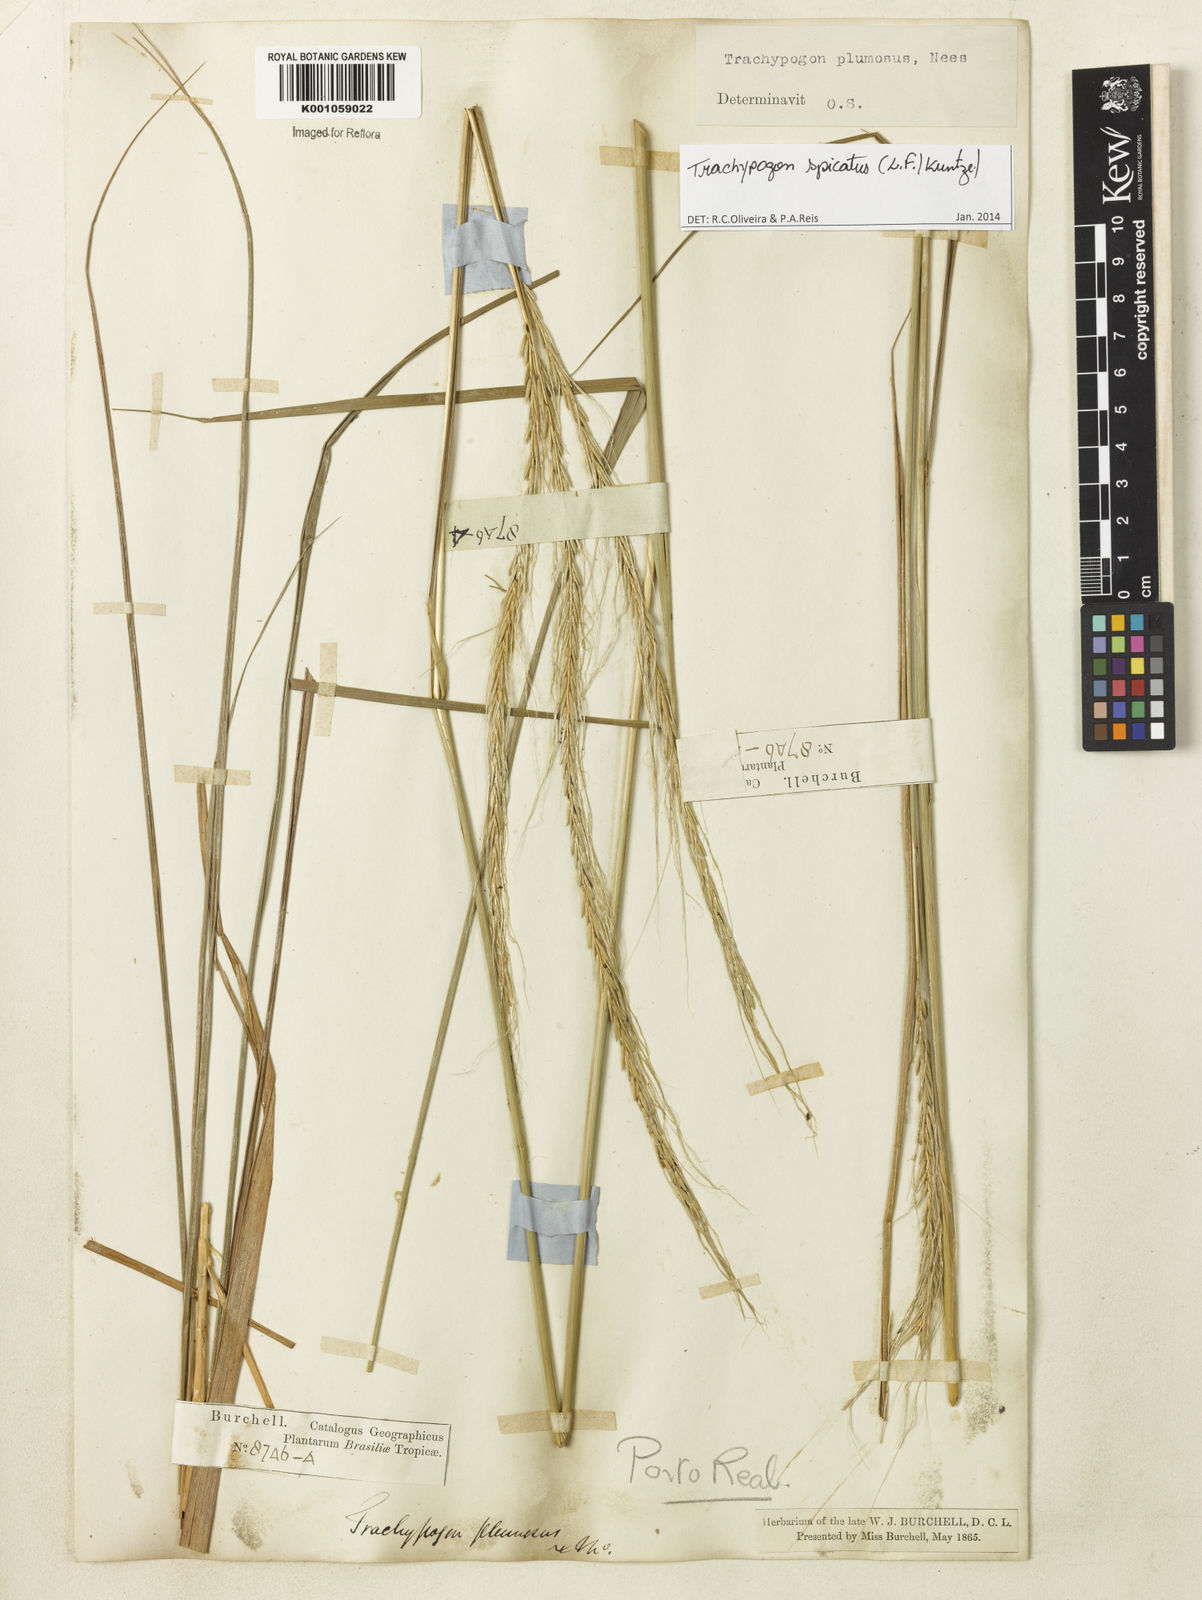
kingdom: Plantae
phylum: Tracheophyta
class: Liliopsida
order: Poales
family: Poaceae
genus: Trachypogon
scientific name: Trachypogon spicatus
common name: Crinkle-awn
